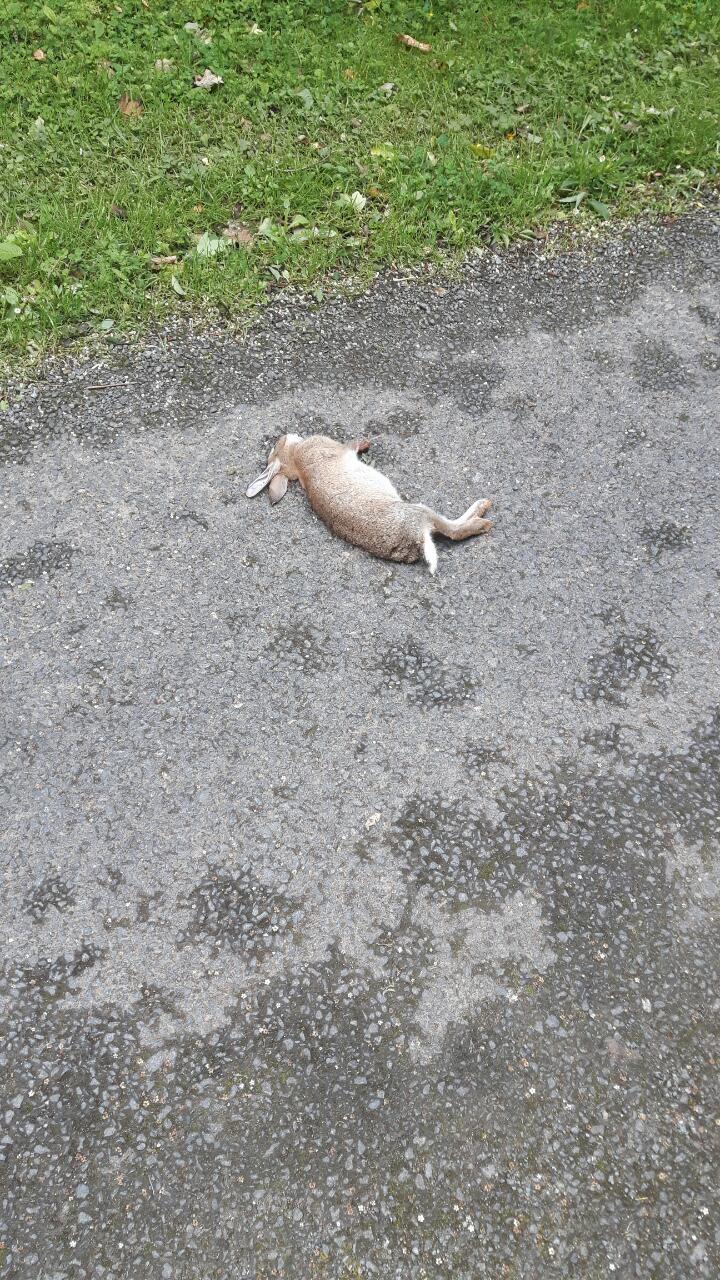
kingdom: Animalia
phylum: Chordata
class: Mammalia
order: Lagomorpha
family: Leporidae
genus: Oryctolagus
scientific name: Oryctolagus cuniculus
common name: European rabbit
